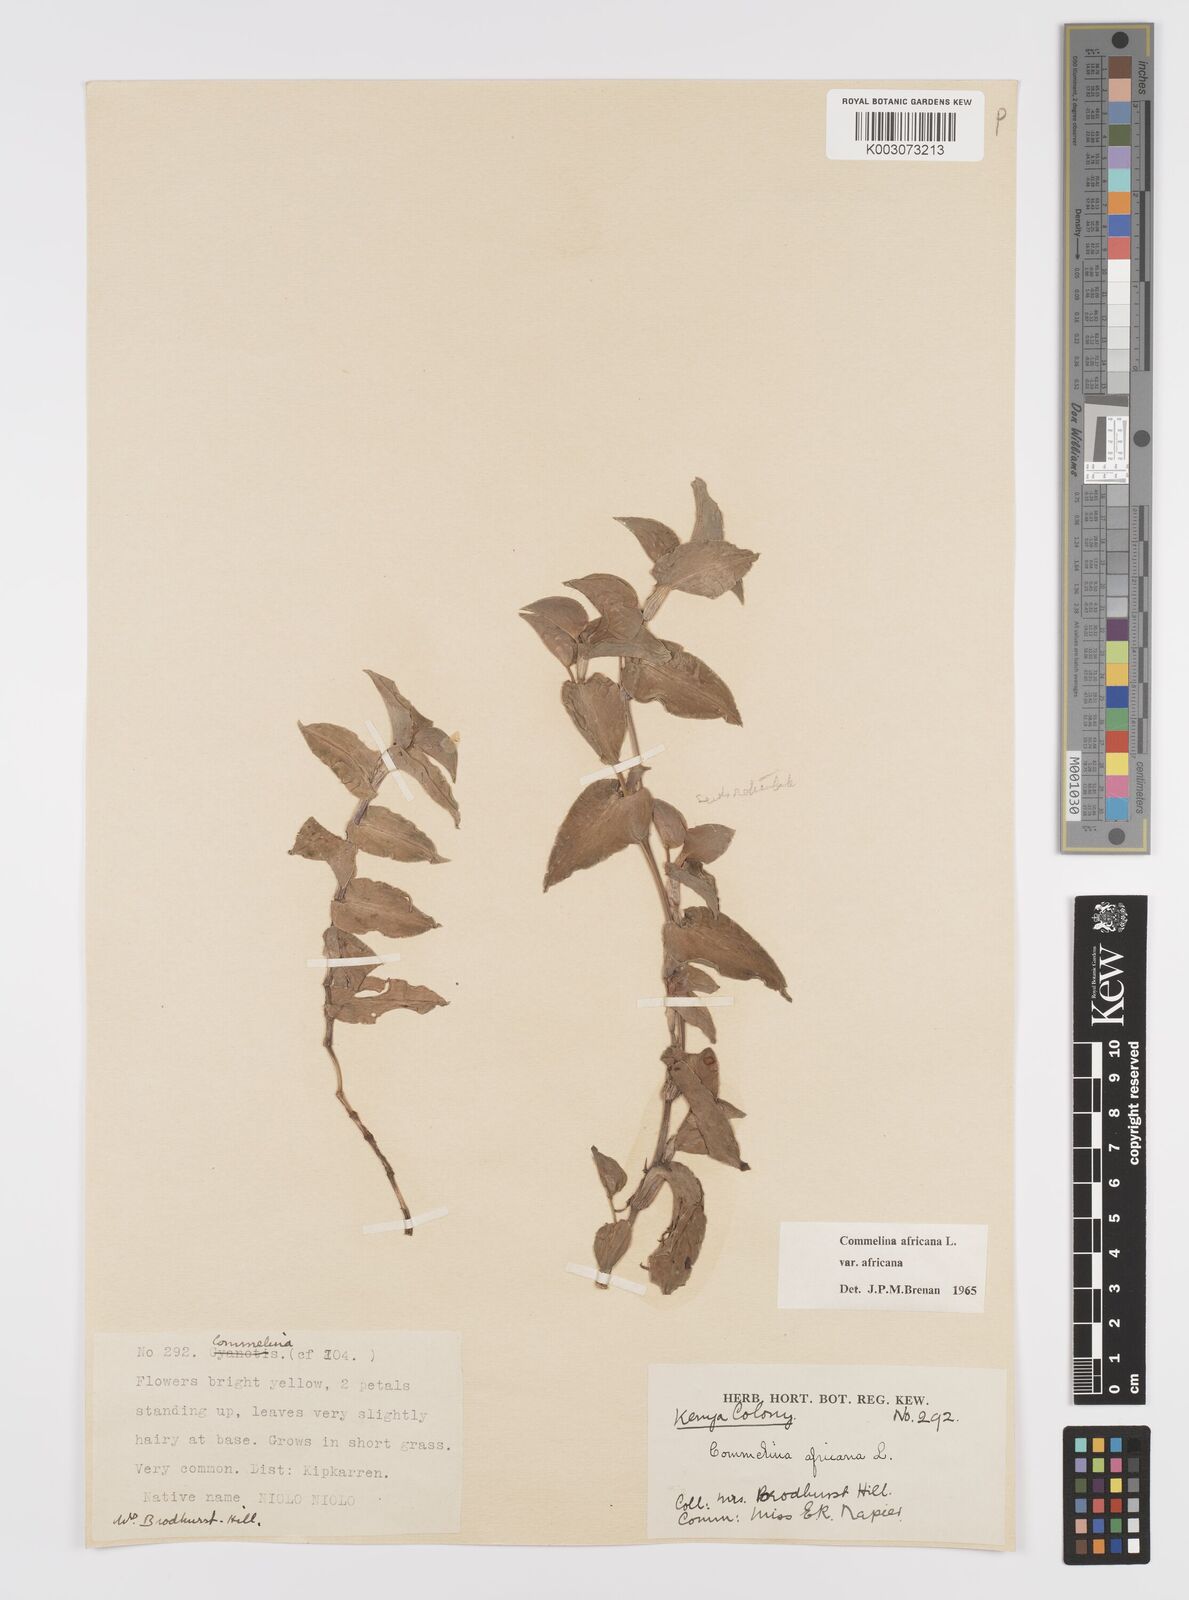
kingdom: Plantae
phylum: Tracheophyta
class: Liliopsida
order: Commelinales
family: Commelinaceae
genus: Commelina
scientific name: Commelina africana
